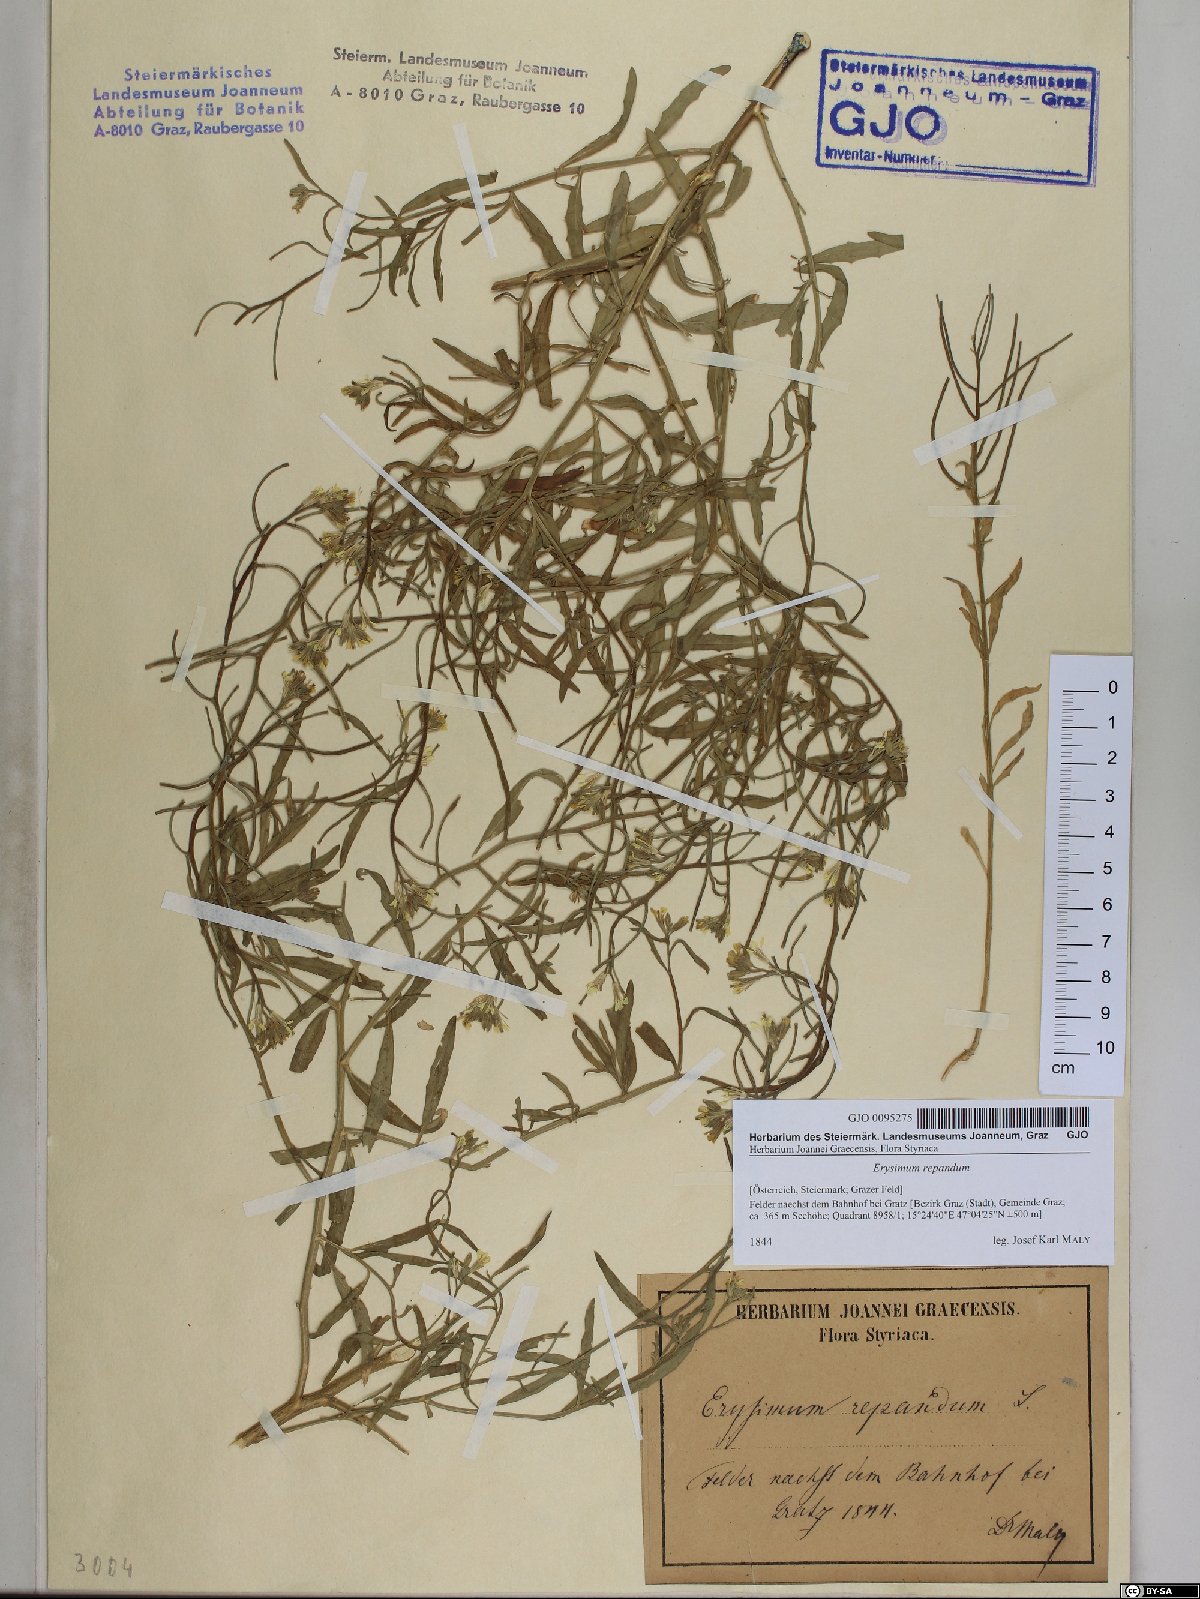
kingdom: Plantae
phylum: Tracheophyta
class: Magnoliopsida
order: Brassicales
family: Brassicaceae
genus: Erysimum
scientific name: Erysimum repandum
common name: Spreading wallflower
